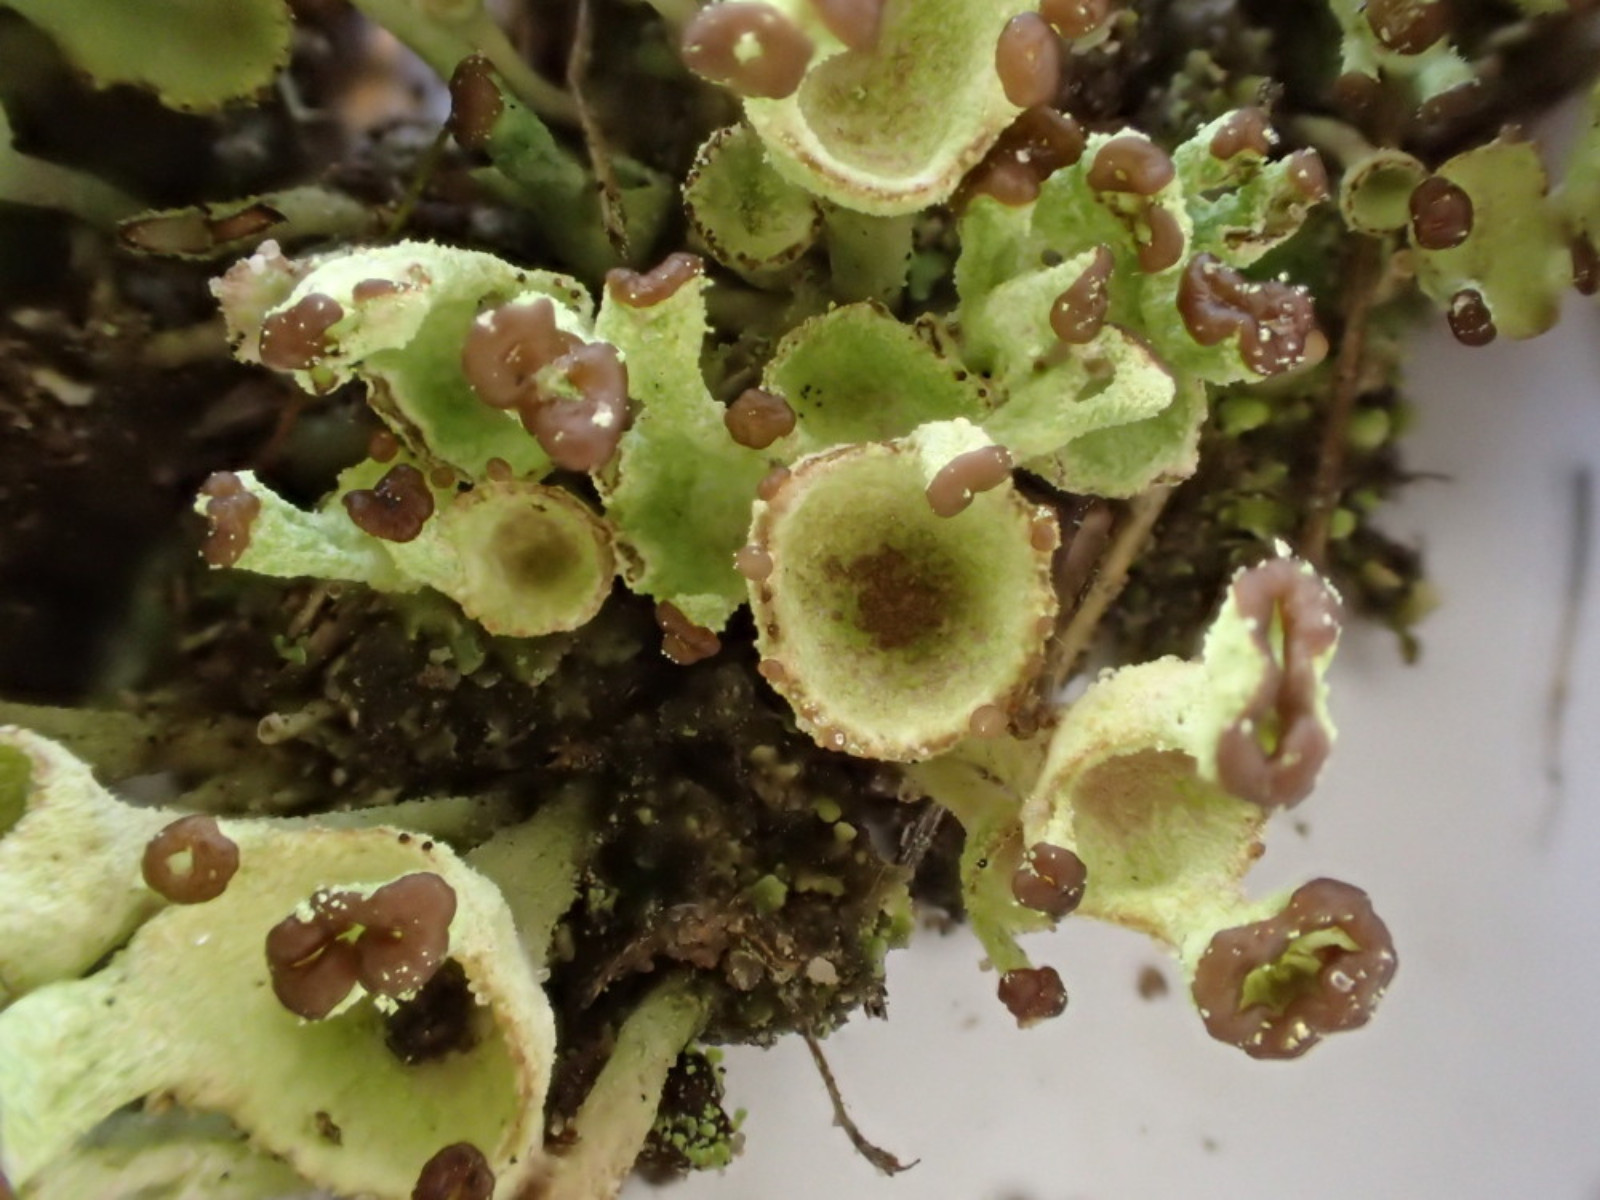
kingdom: Fungi
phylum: Ascomycota
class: Lecanoromycetes
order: Lecanorales
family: Cladoniaceae
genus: Cladonia
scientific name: Cladonia fimbriata
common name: bleggrøn bægerlav
